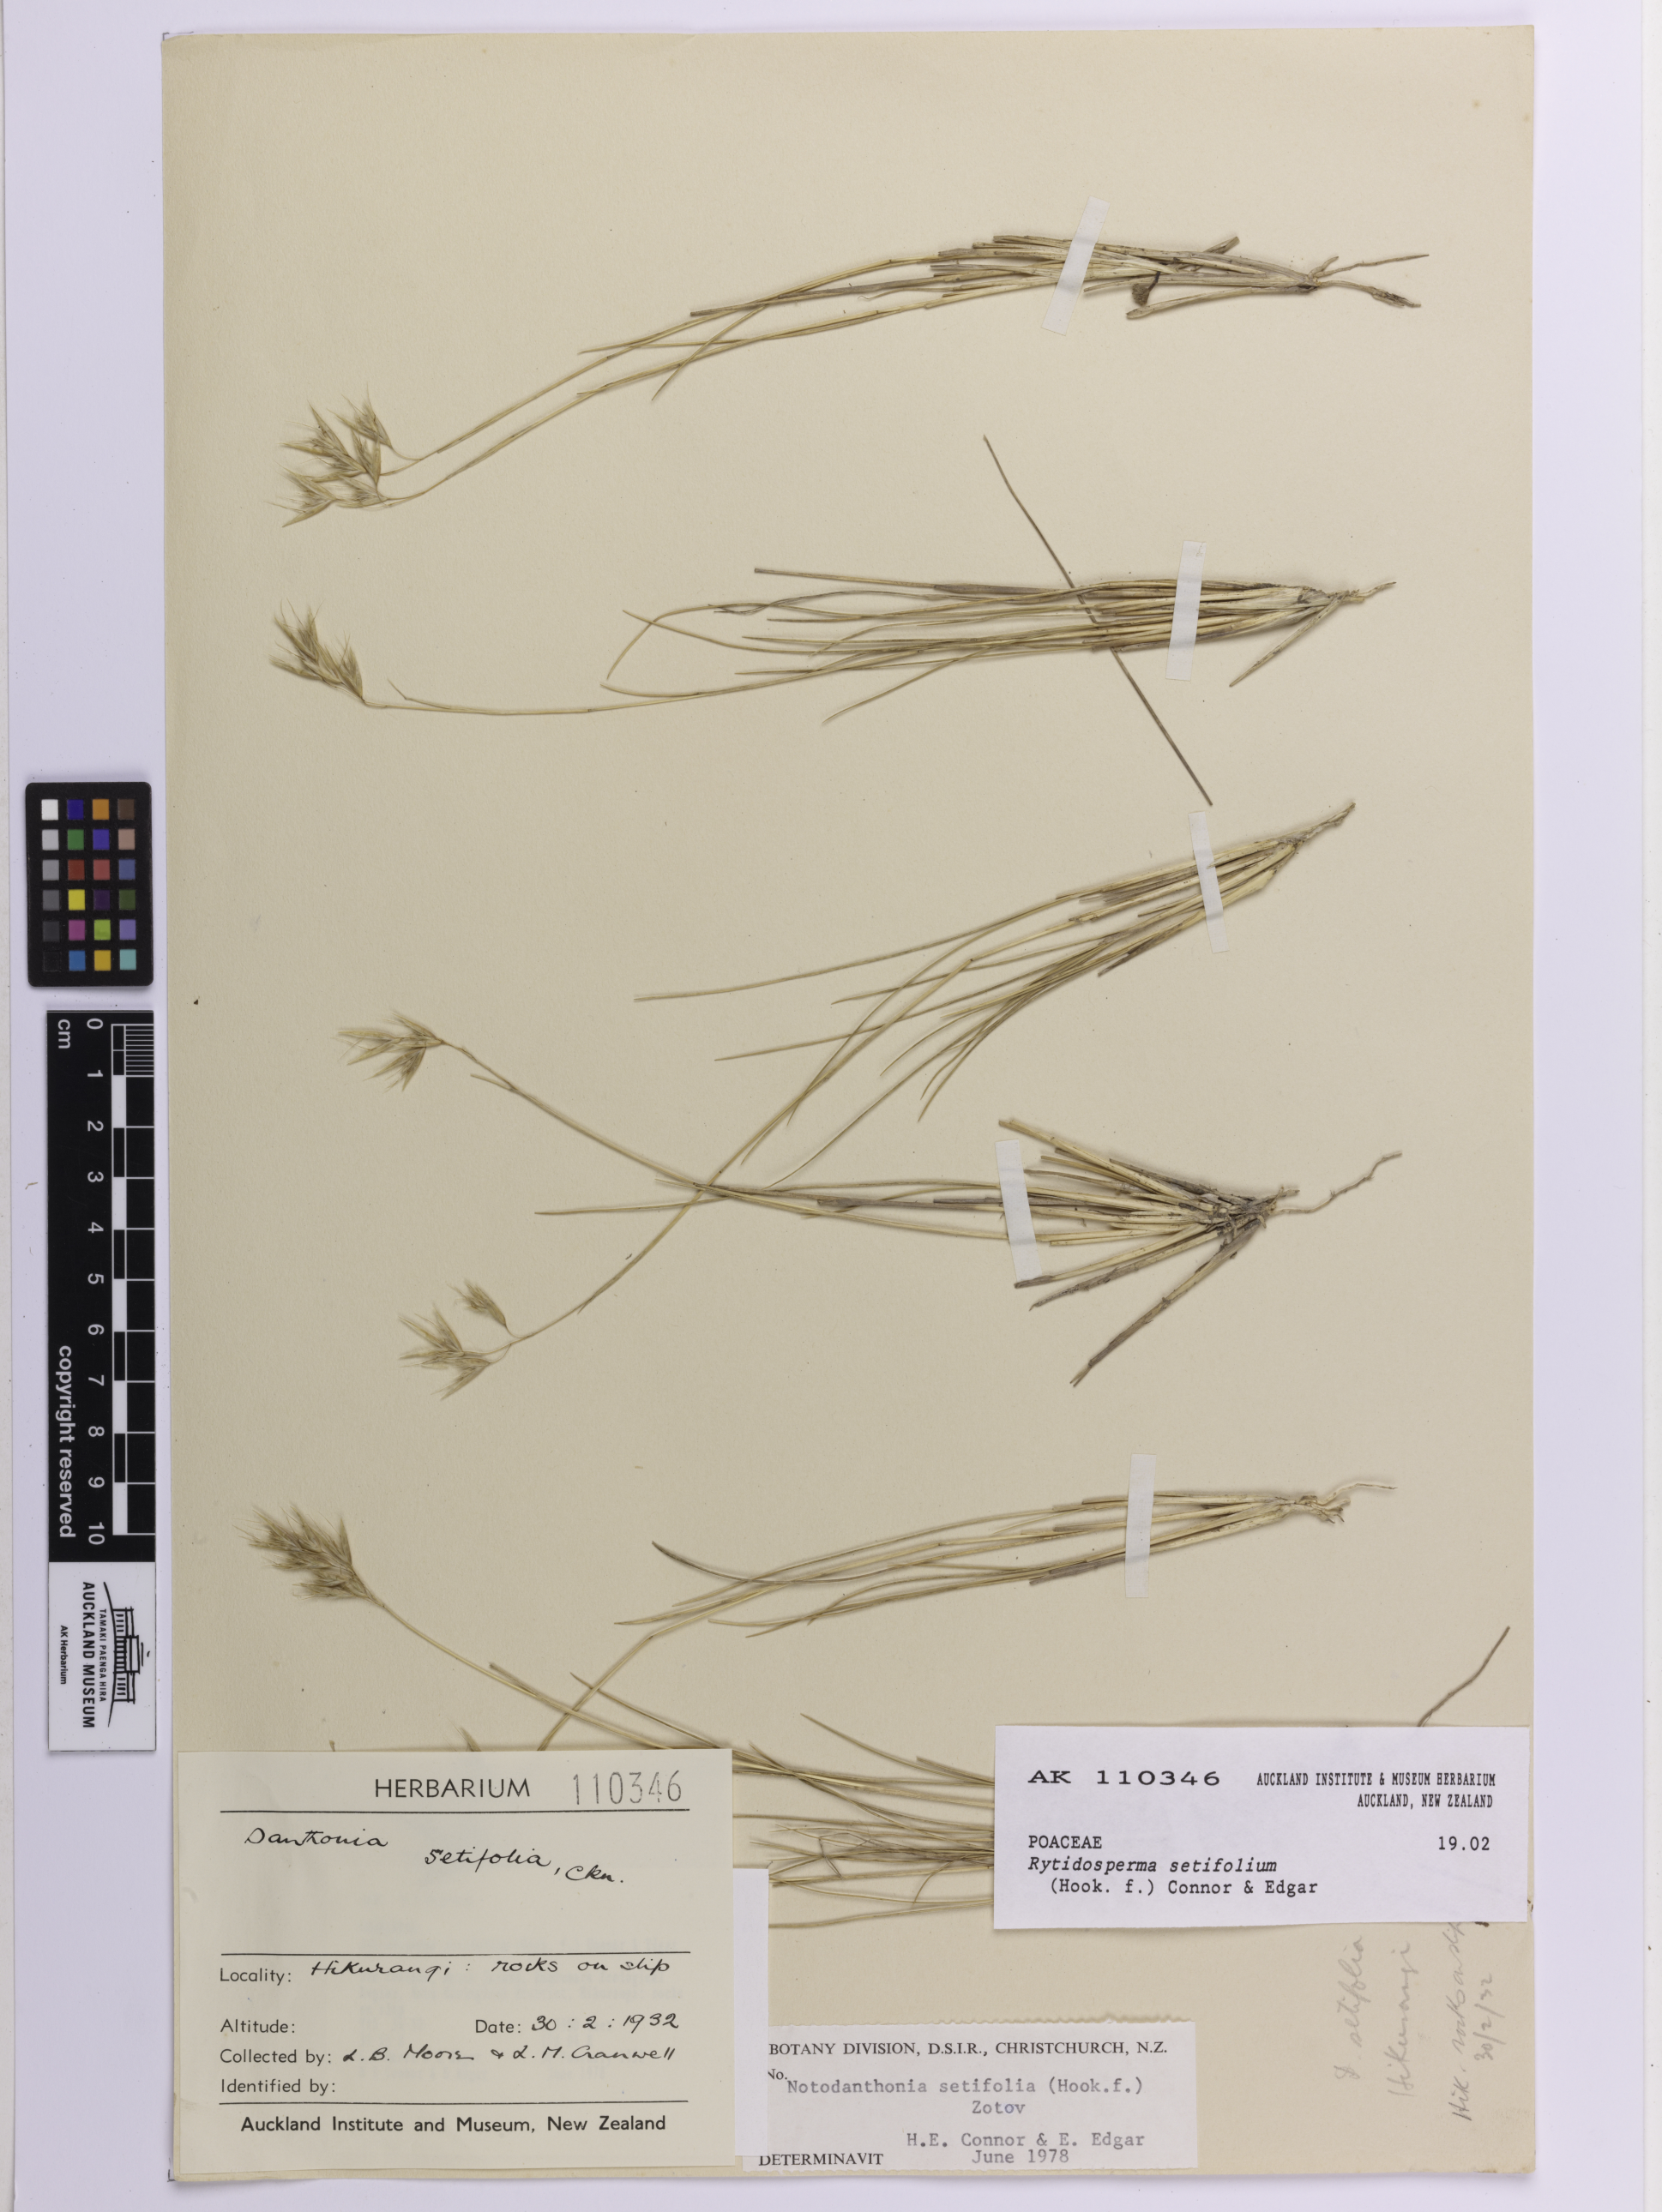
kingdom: Plantae
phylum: Tracheophyta
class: Liliopsida
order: Poales
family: Poaceae
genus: Rytidosperma
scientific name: Rytidosperma setifolium
